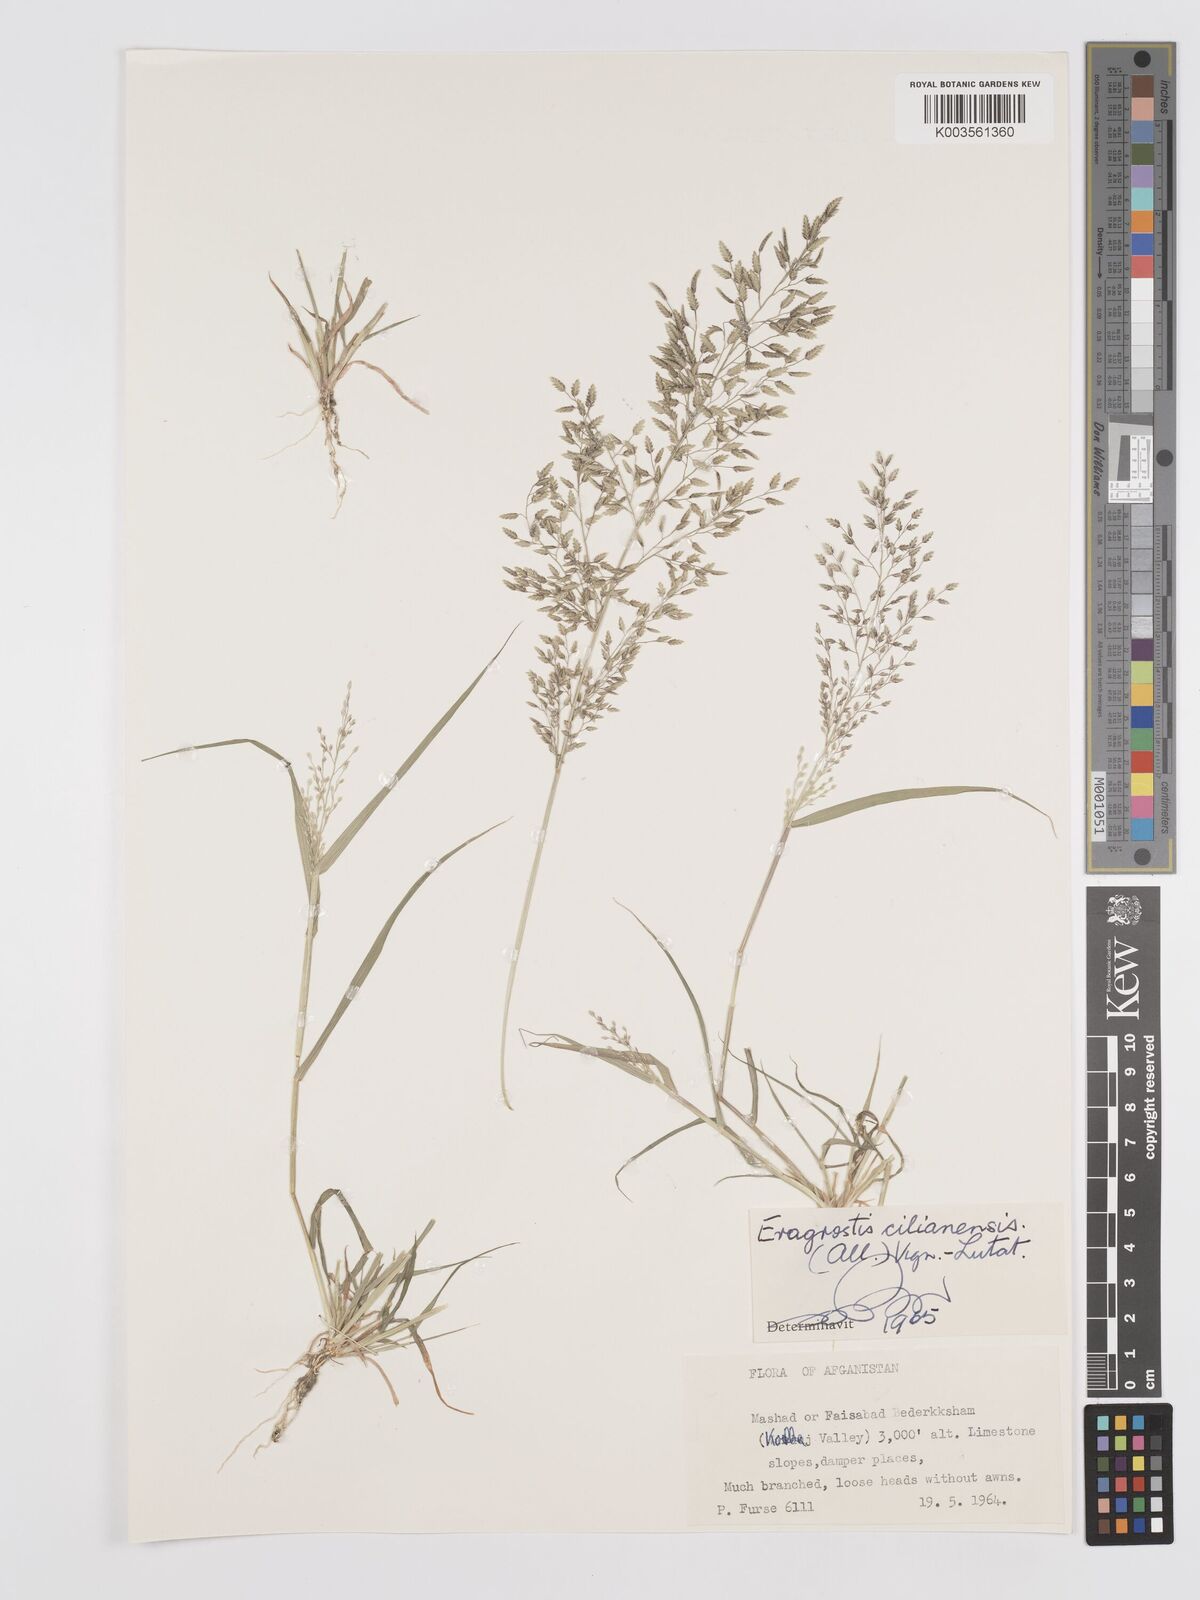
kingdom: Plantae
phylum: Tracheophyta
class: Liliopsida
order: Poales
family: Poaceae
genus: Eragrostis
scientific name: Eragrostis cilianensis
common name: Stinkgrass
